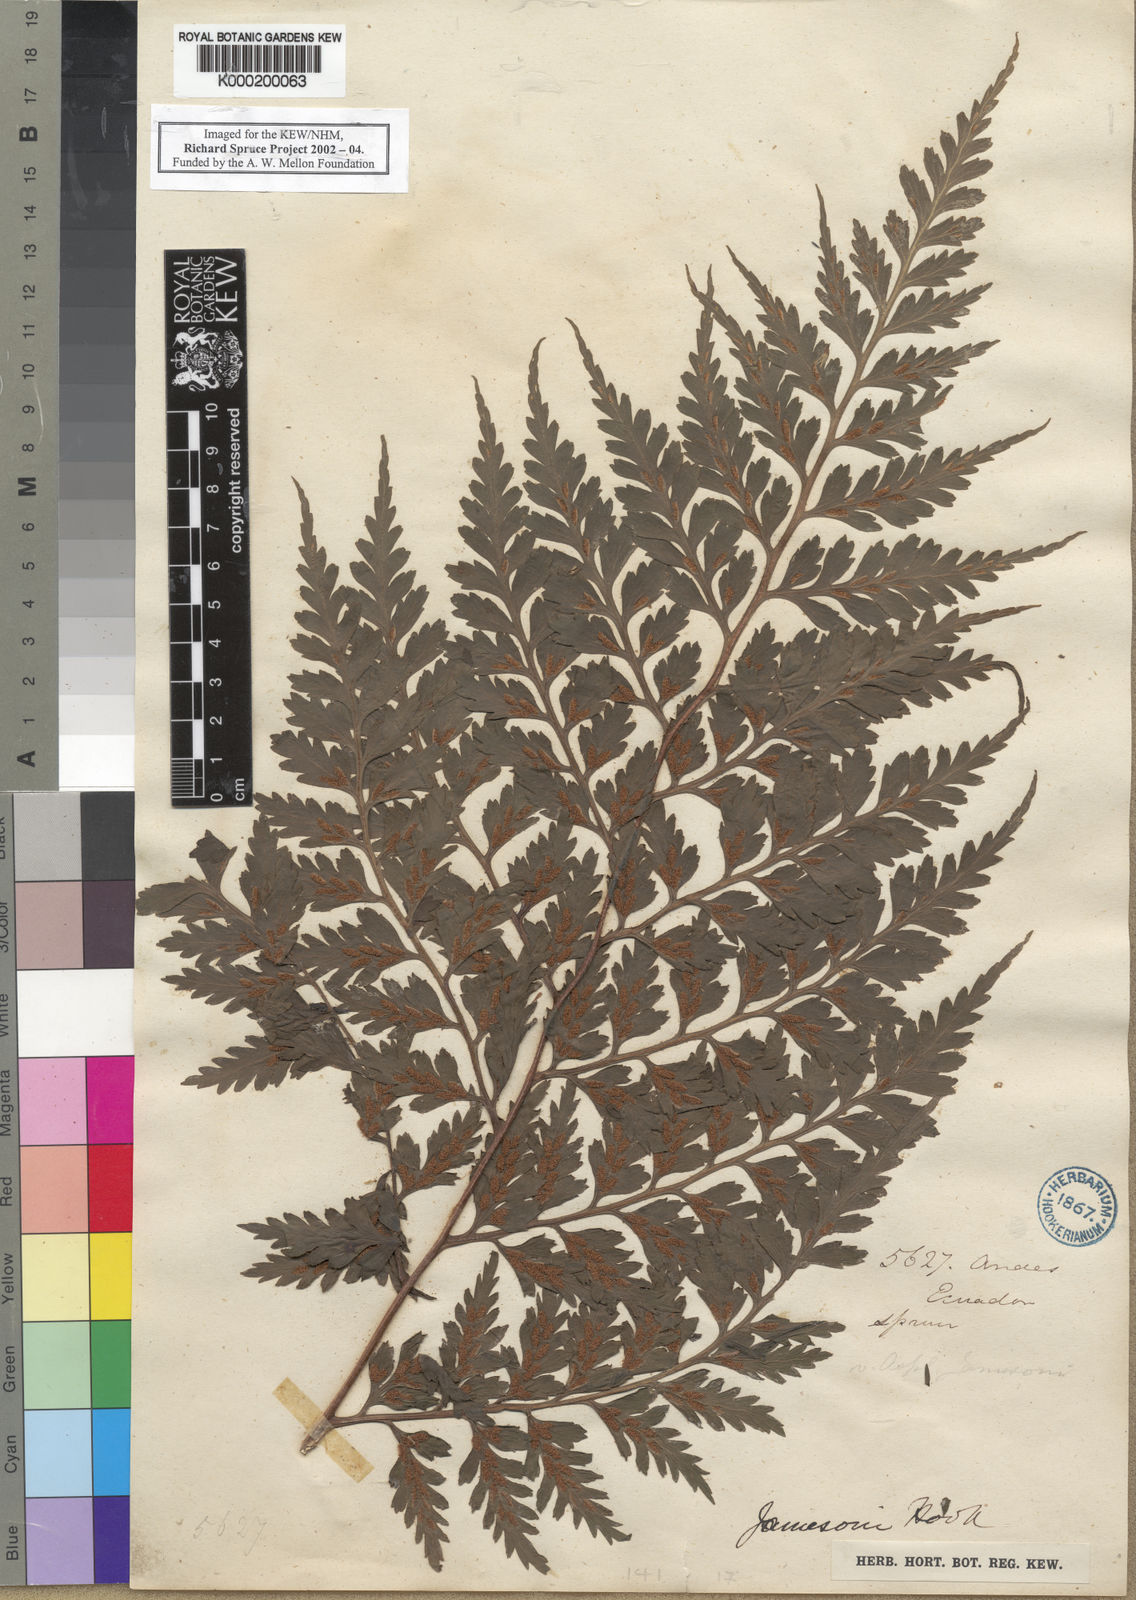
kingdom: Plantae
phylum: Tracheophyta
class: Polypodiopsida
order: Polypodiales
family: Aspleniaceae
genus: Asplenium
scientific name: Asplenium squamosum
